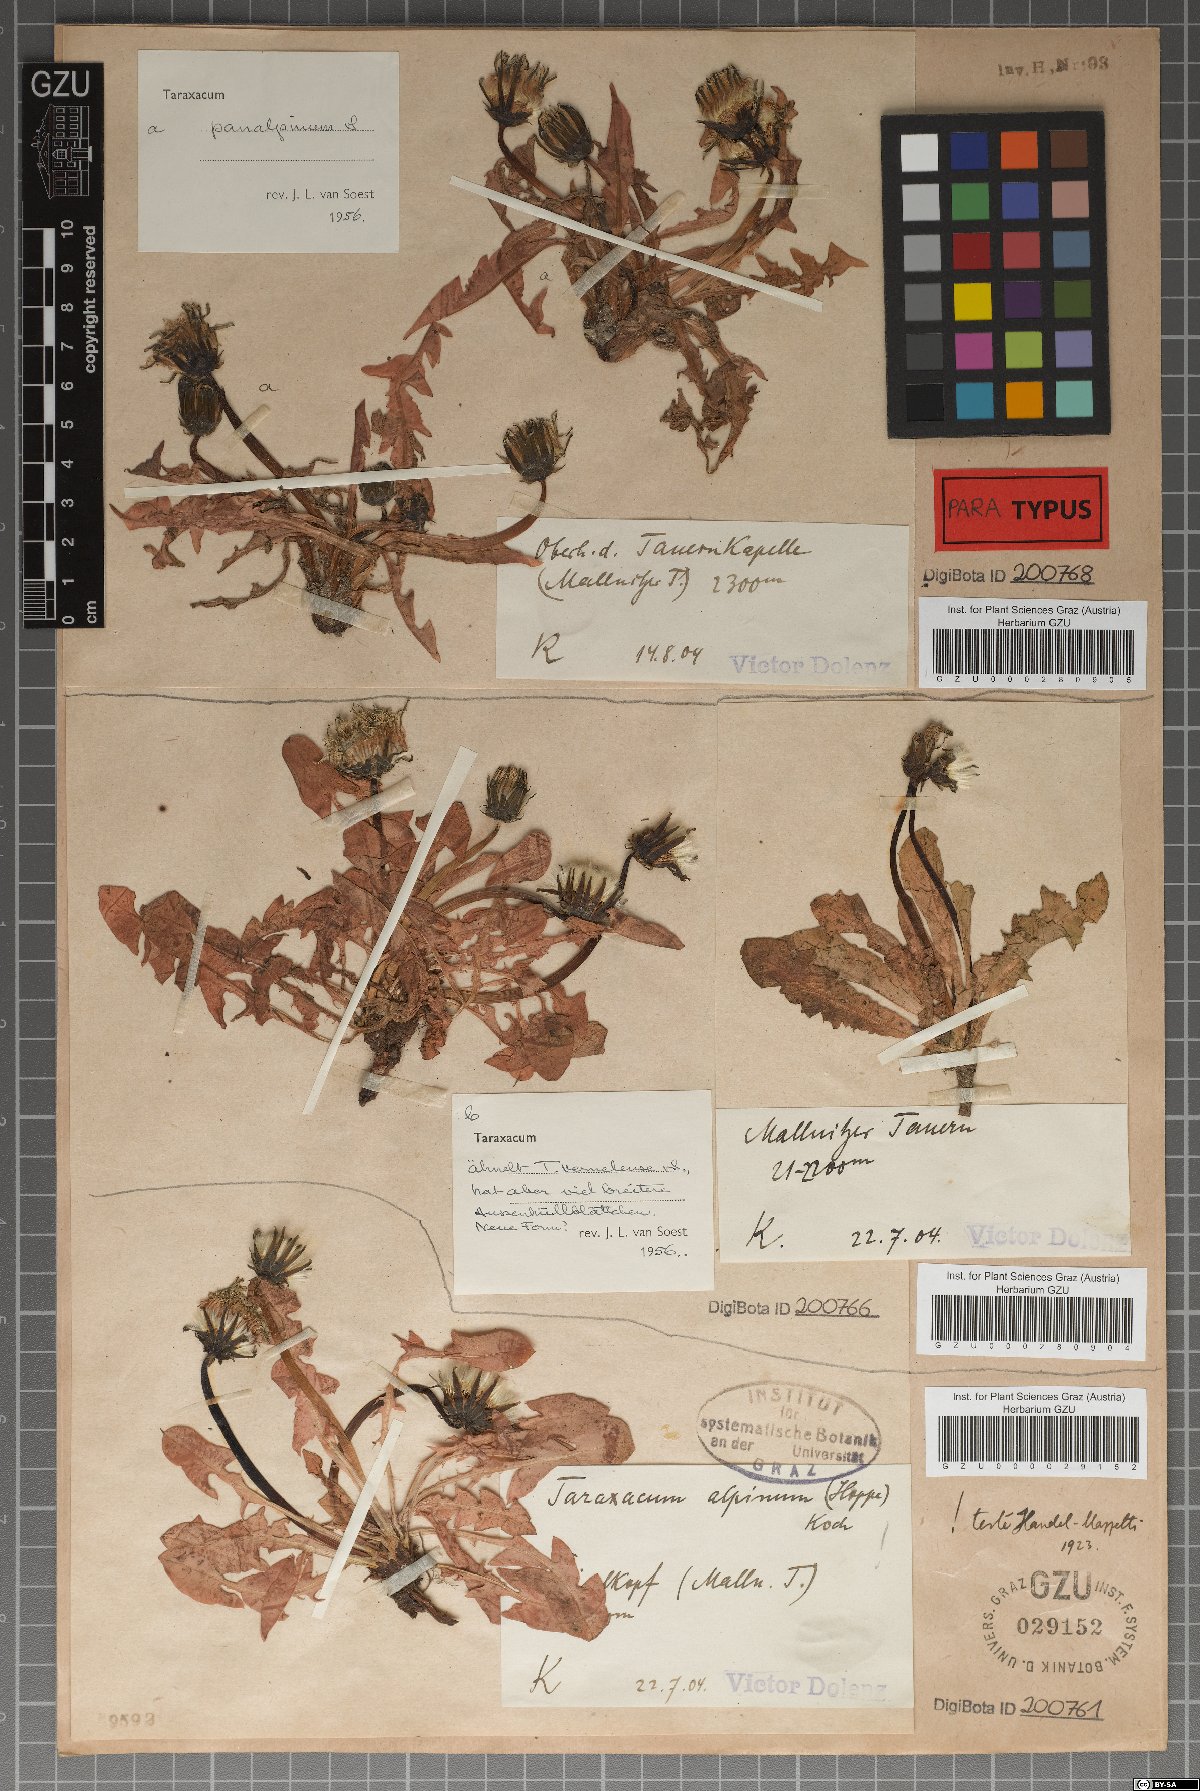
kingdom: Plantae
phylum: Tracheophyta
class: Magnoliopsida
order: Asterales
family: Asteraceae
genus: Taraxacum
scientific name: Taraxacum panalpinum
